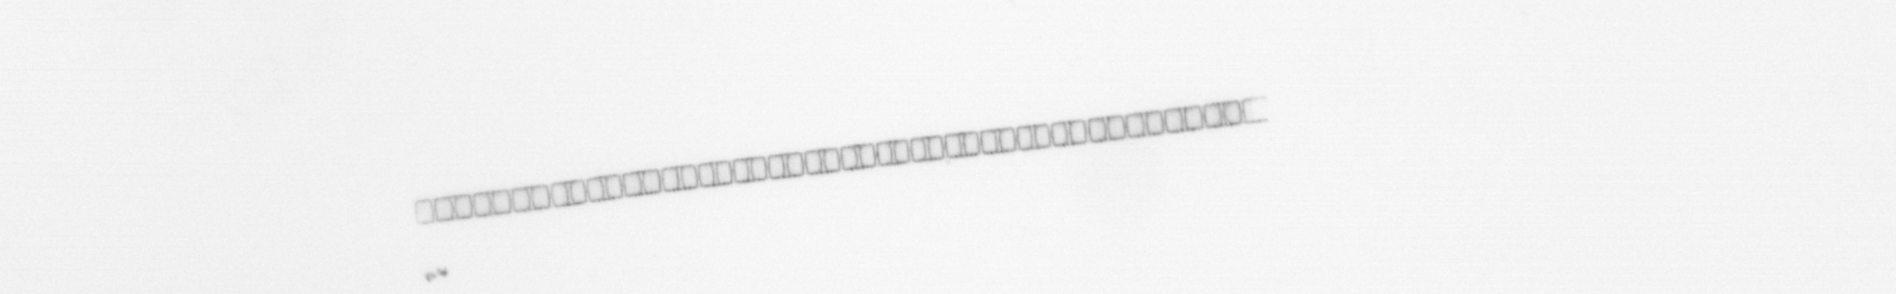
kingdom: Chromista
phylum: Ochrophyta
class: Bacillariophyceae
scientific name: Bacillariophyceae
